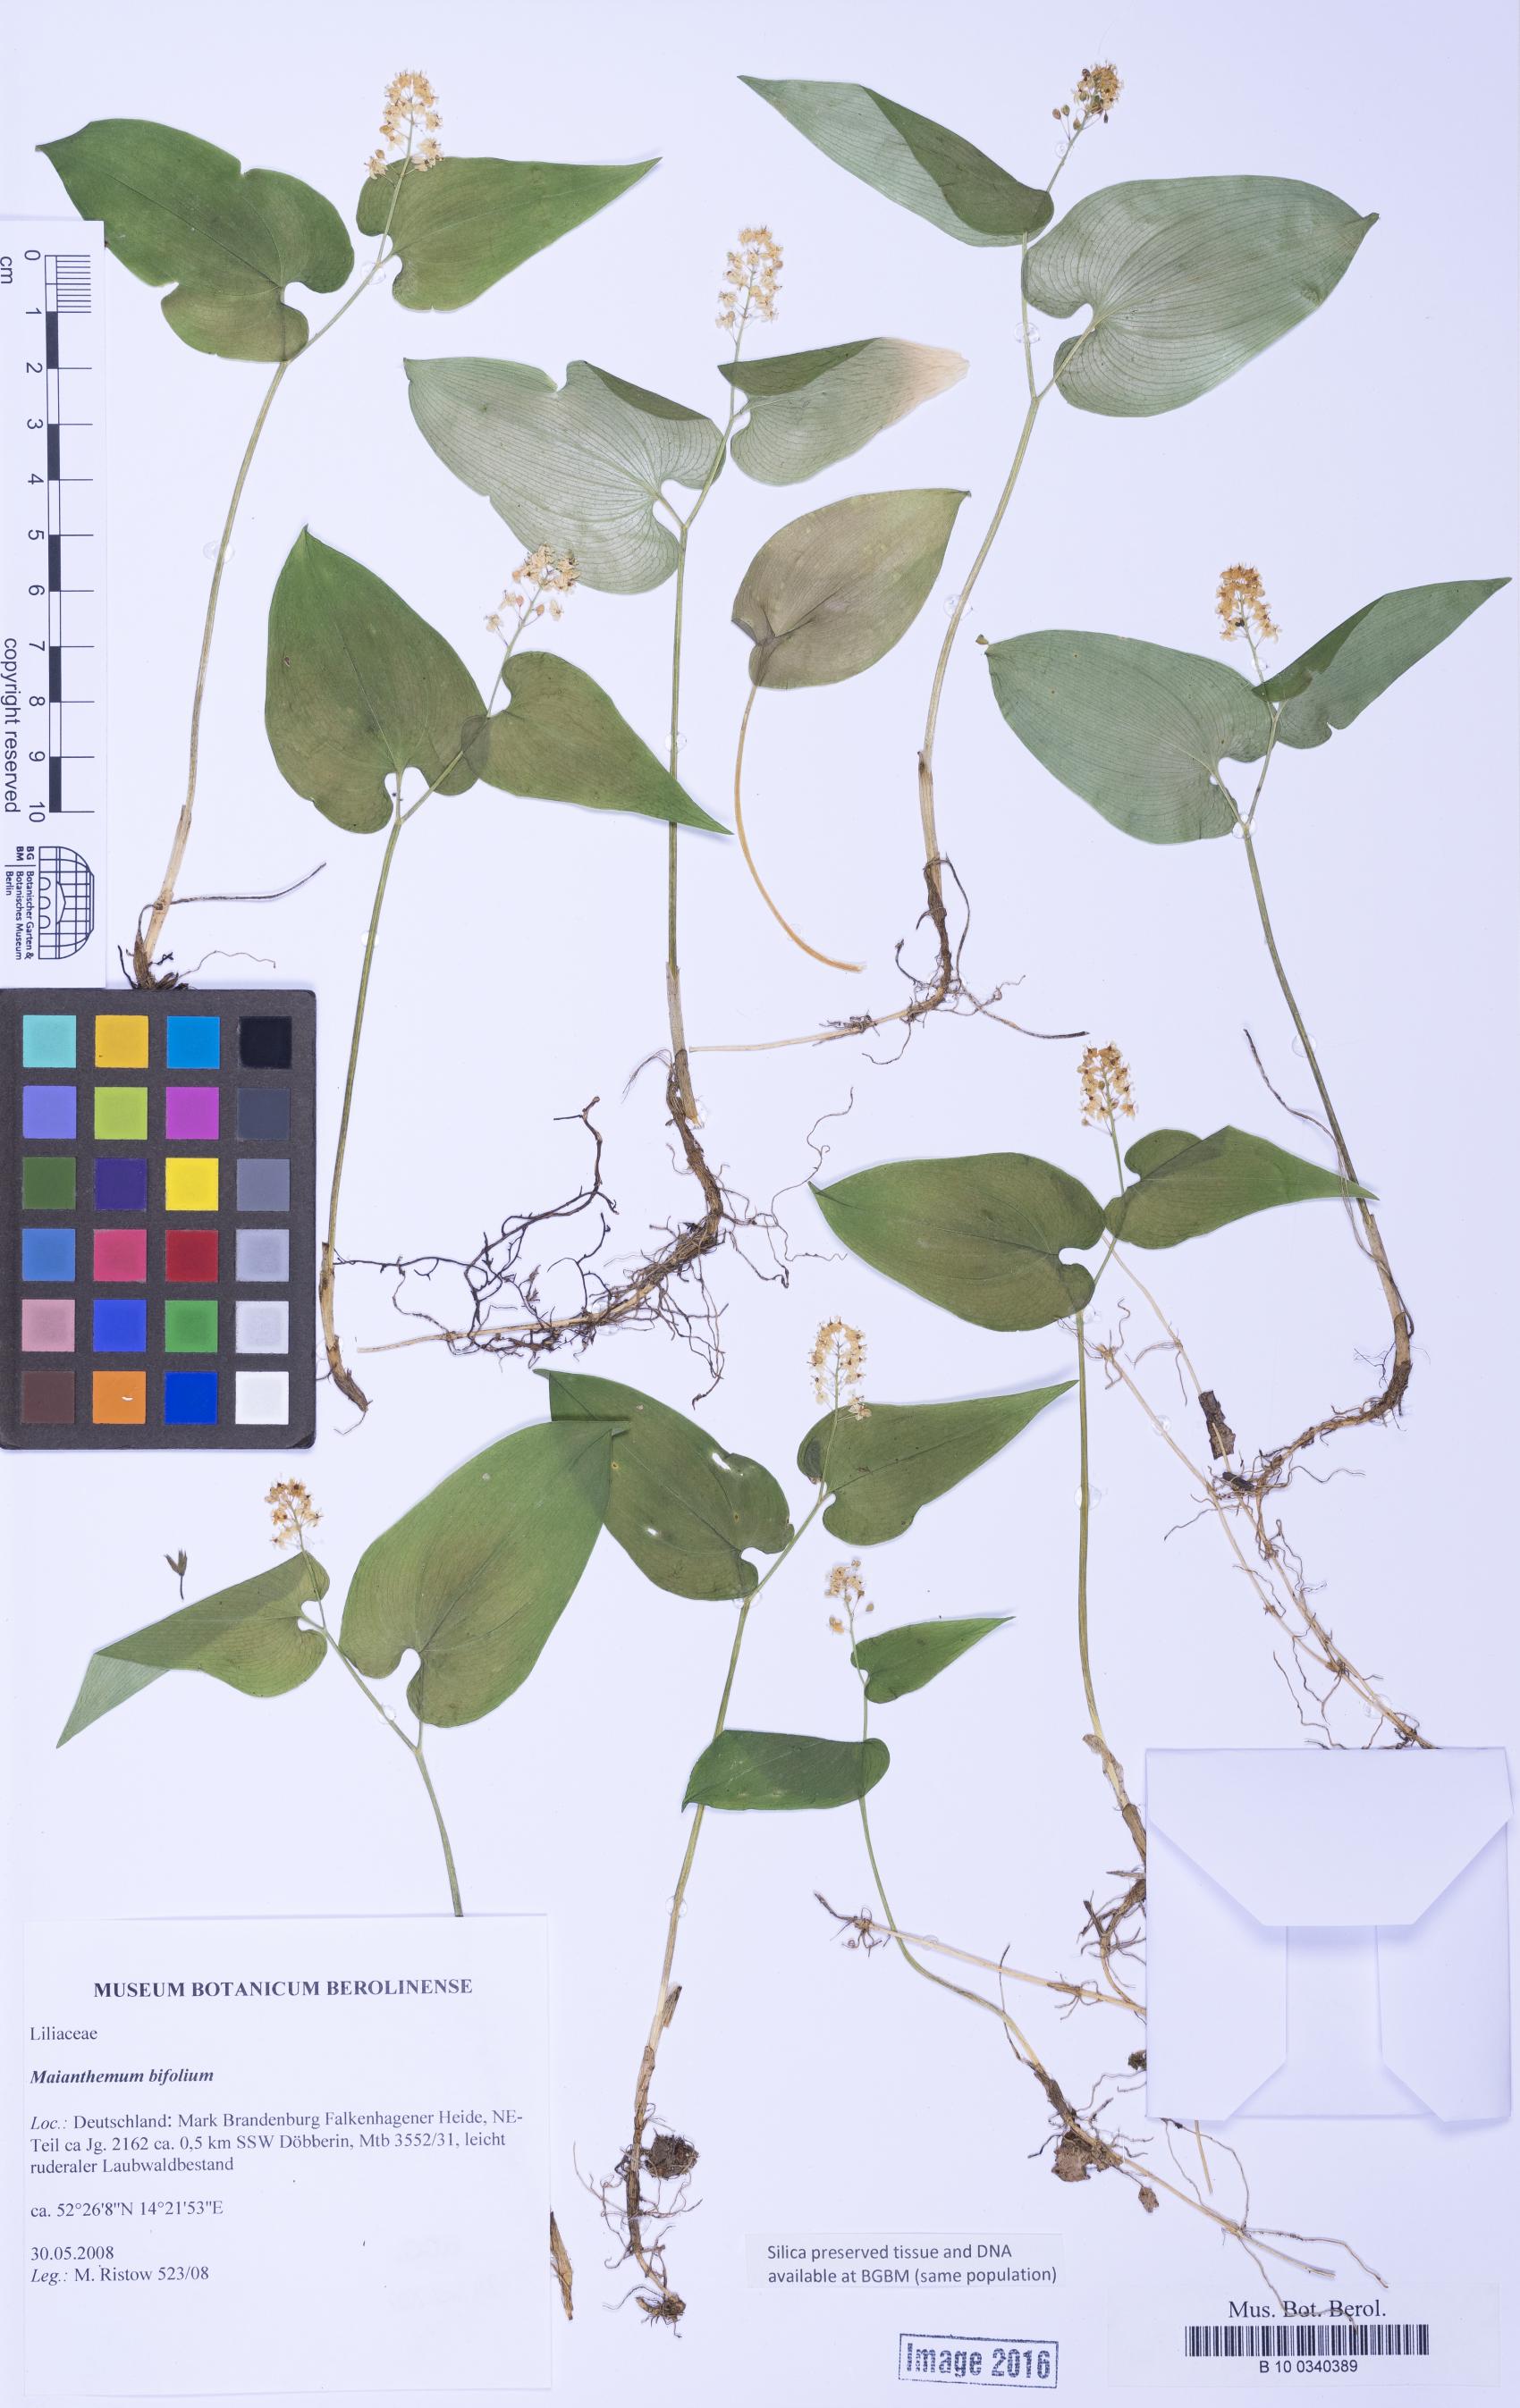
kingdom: Plantae
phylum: Tracheophyta
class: Liliopsida
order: Asparagales
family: Asparagaceae
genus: Maianthemum
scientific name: Maianthemum bifolium
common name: May lily
